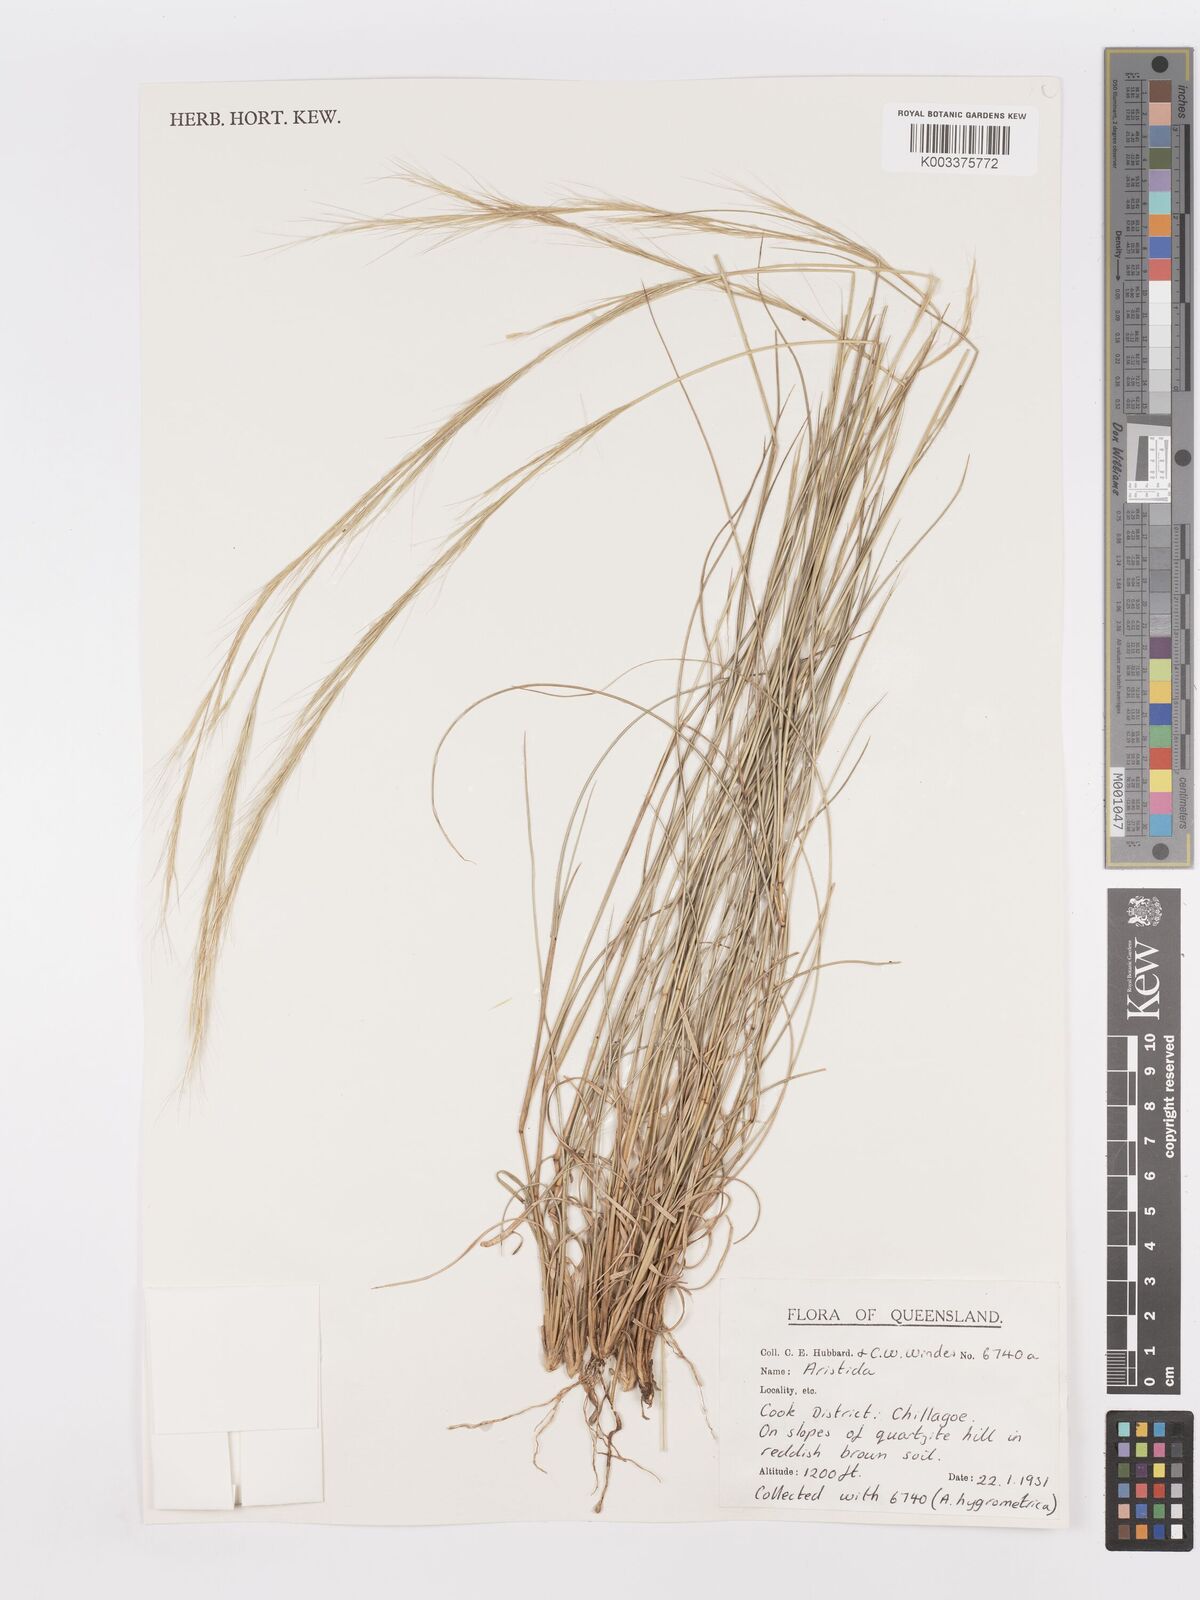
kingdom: Plantae
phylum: Tracheophyta
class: Liliopsida
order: Poales
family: Poaceae
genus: Aristida
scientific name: Aristida
